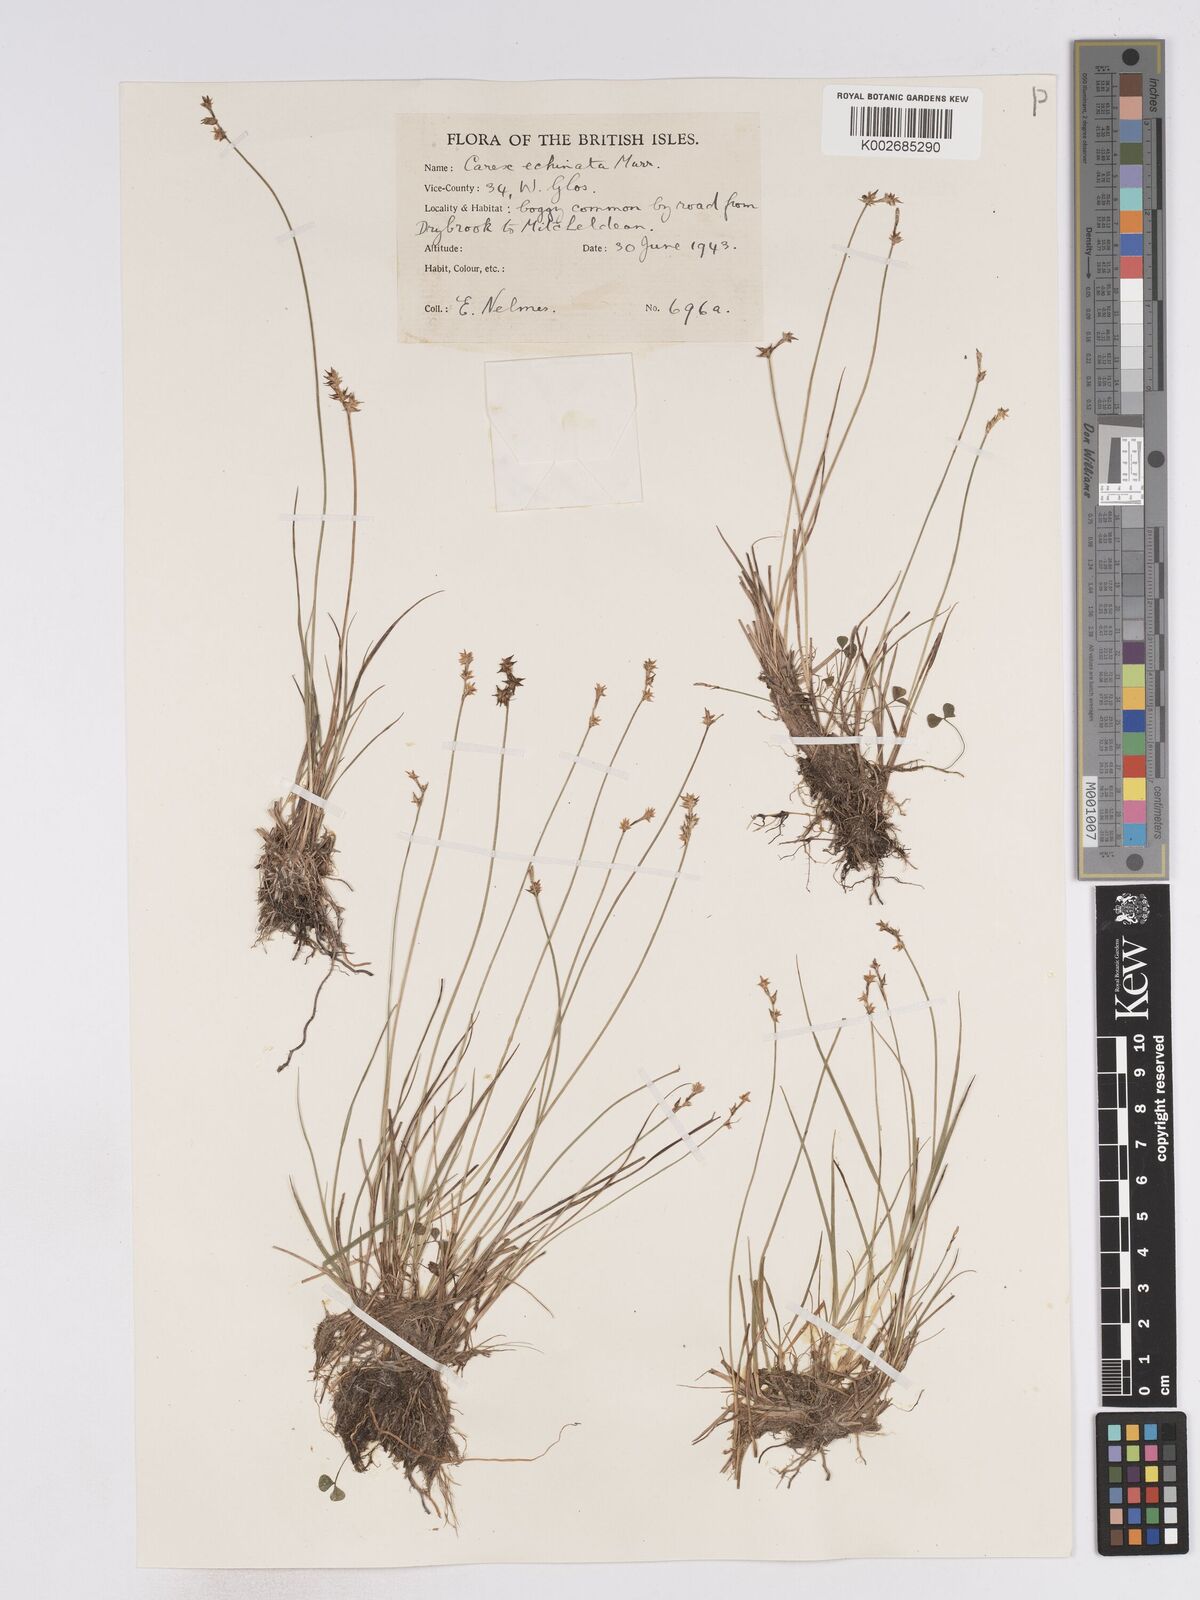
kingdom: Plantae
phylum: Tracheophyta
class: Liliopsida
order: Poales
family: Cyperaceae
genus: Carex
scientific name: Carex echinata
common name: Star sedge
